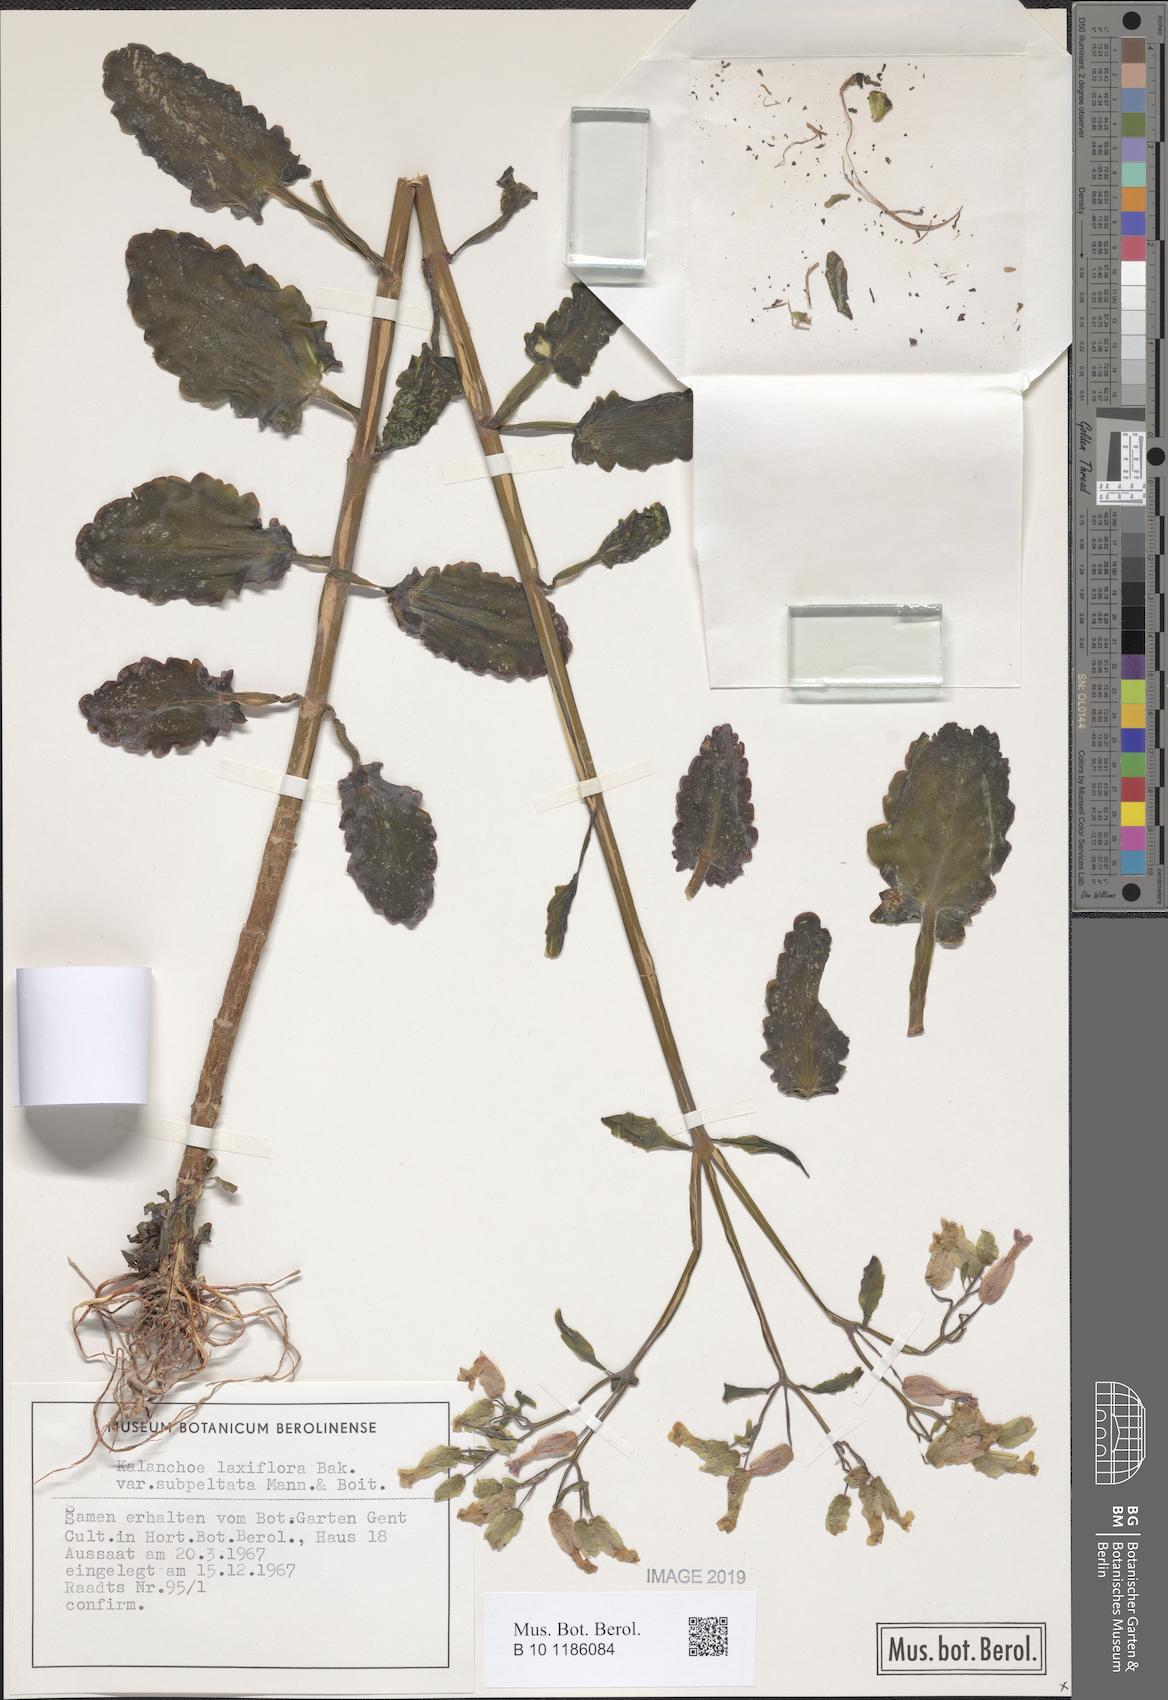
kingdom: Plantae
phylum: Tracheophyta
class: Magnoliopsida
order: Saxifragales
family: Crassulaceae
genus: Kalanchoe
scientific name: Kalanchoe laxiflora
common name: Milky widow's thrill
